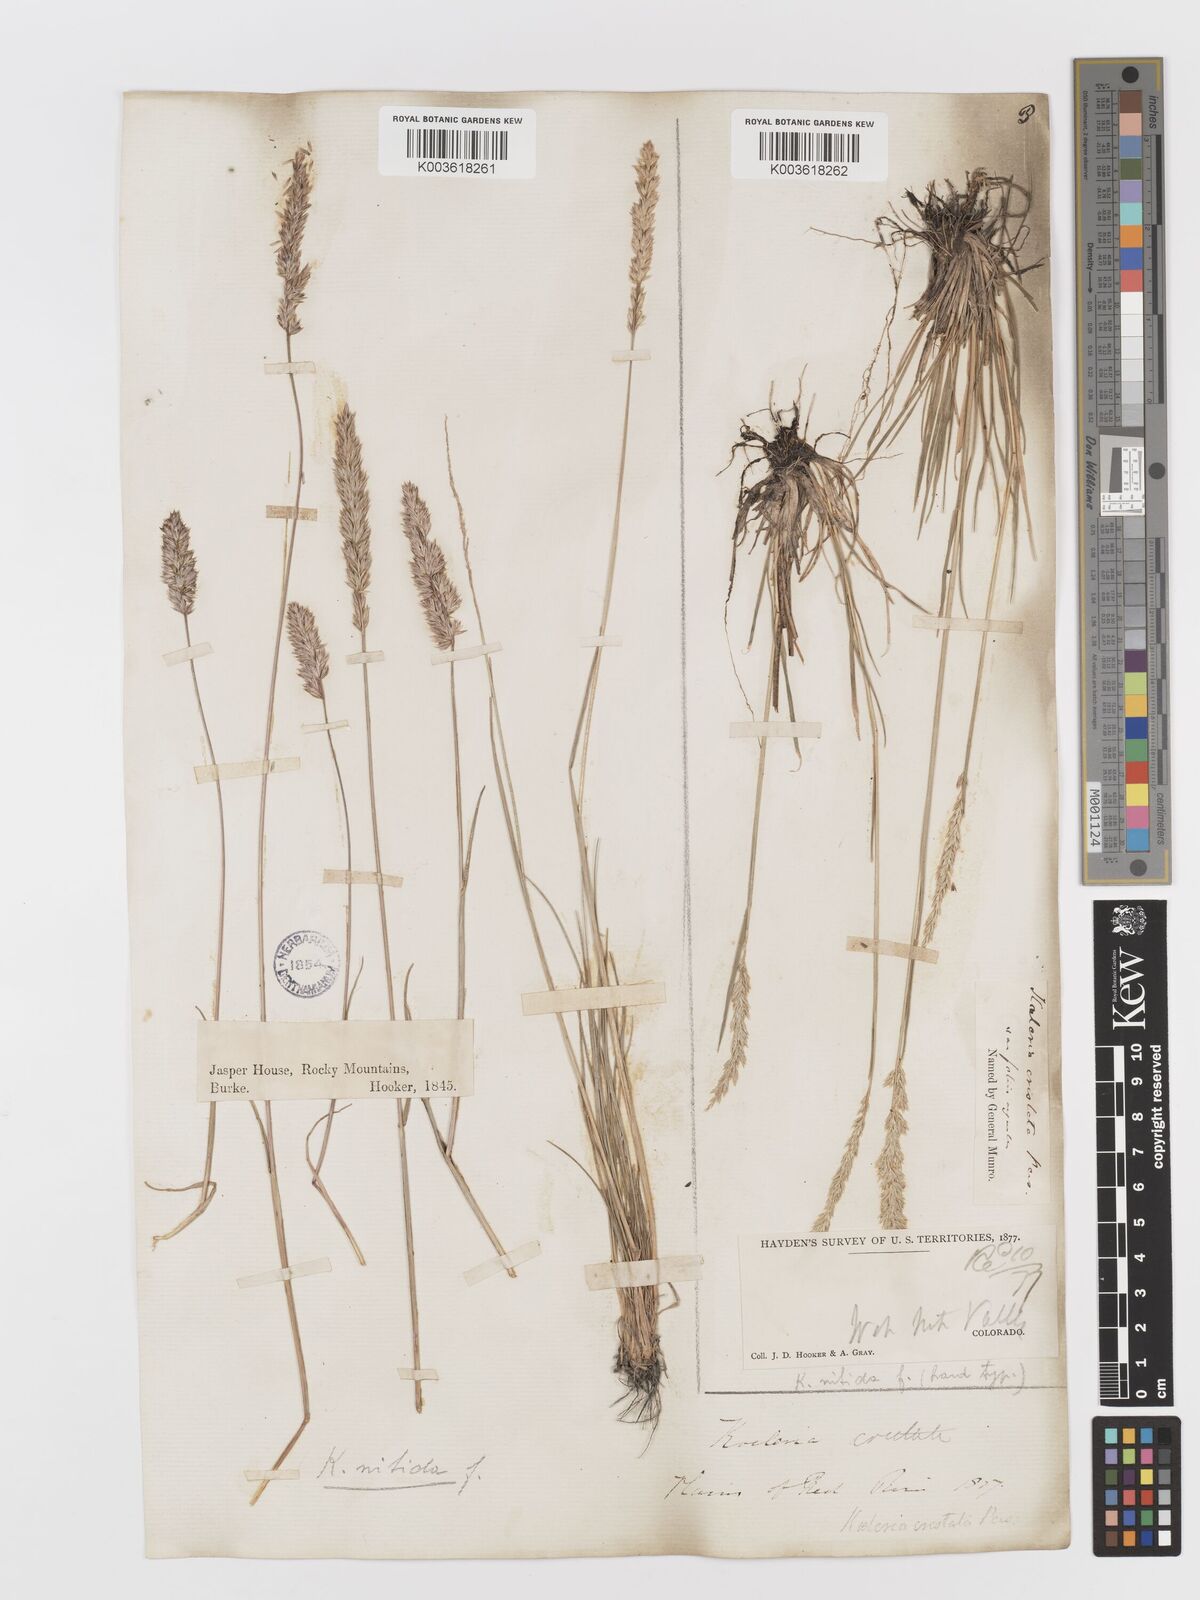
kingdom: Plantae
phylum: Tracheophyta
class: Liliopsida
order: Poales
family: Poaceae
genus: Koeleria
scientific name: Koeleria macrantha
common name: Crested hair-grass
